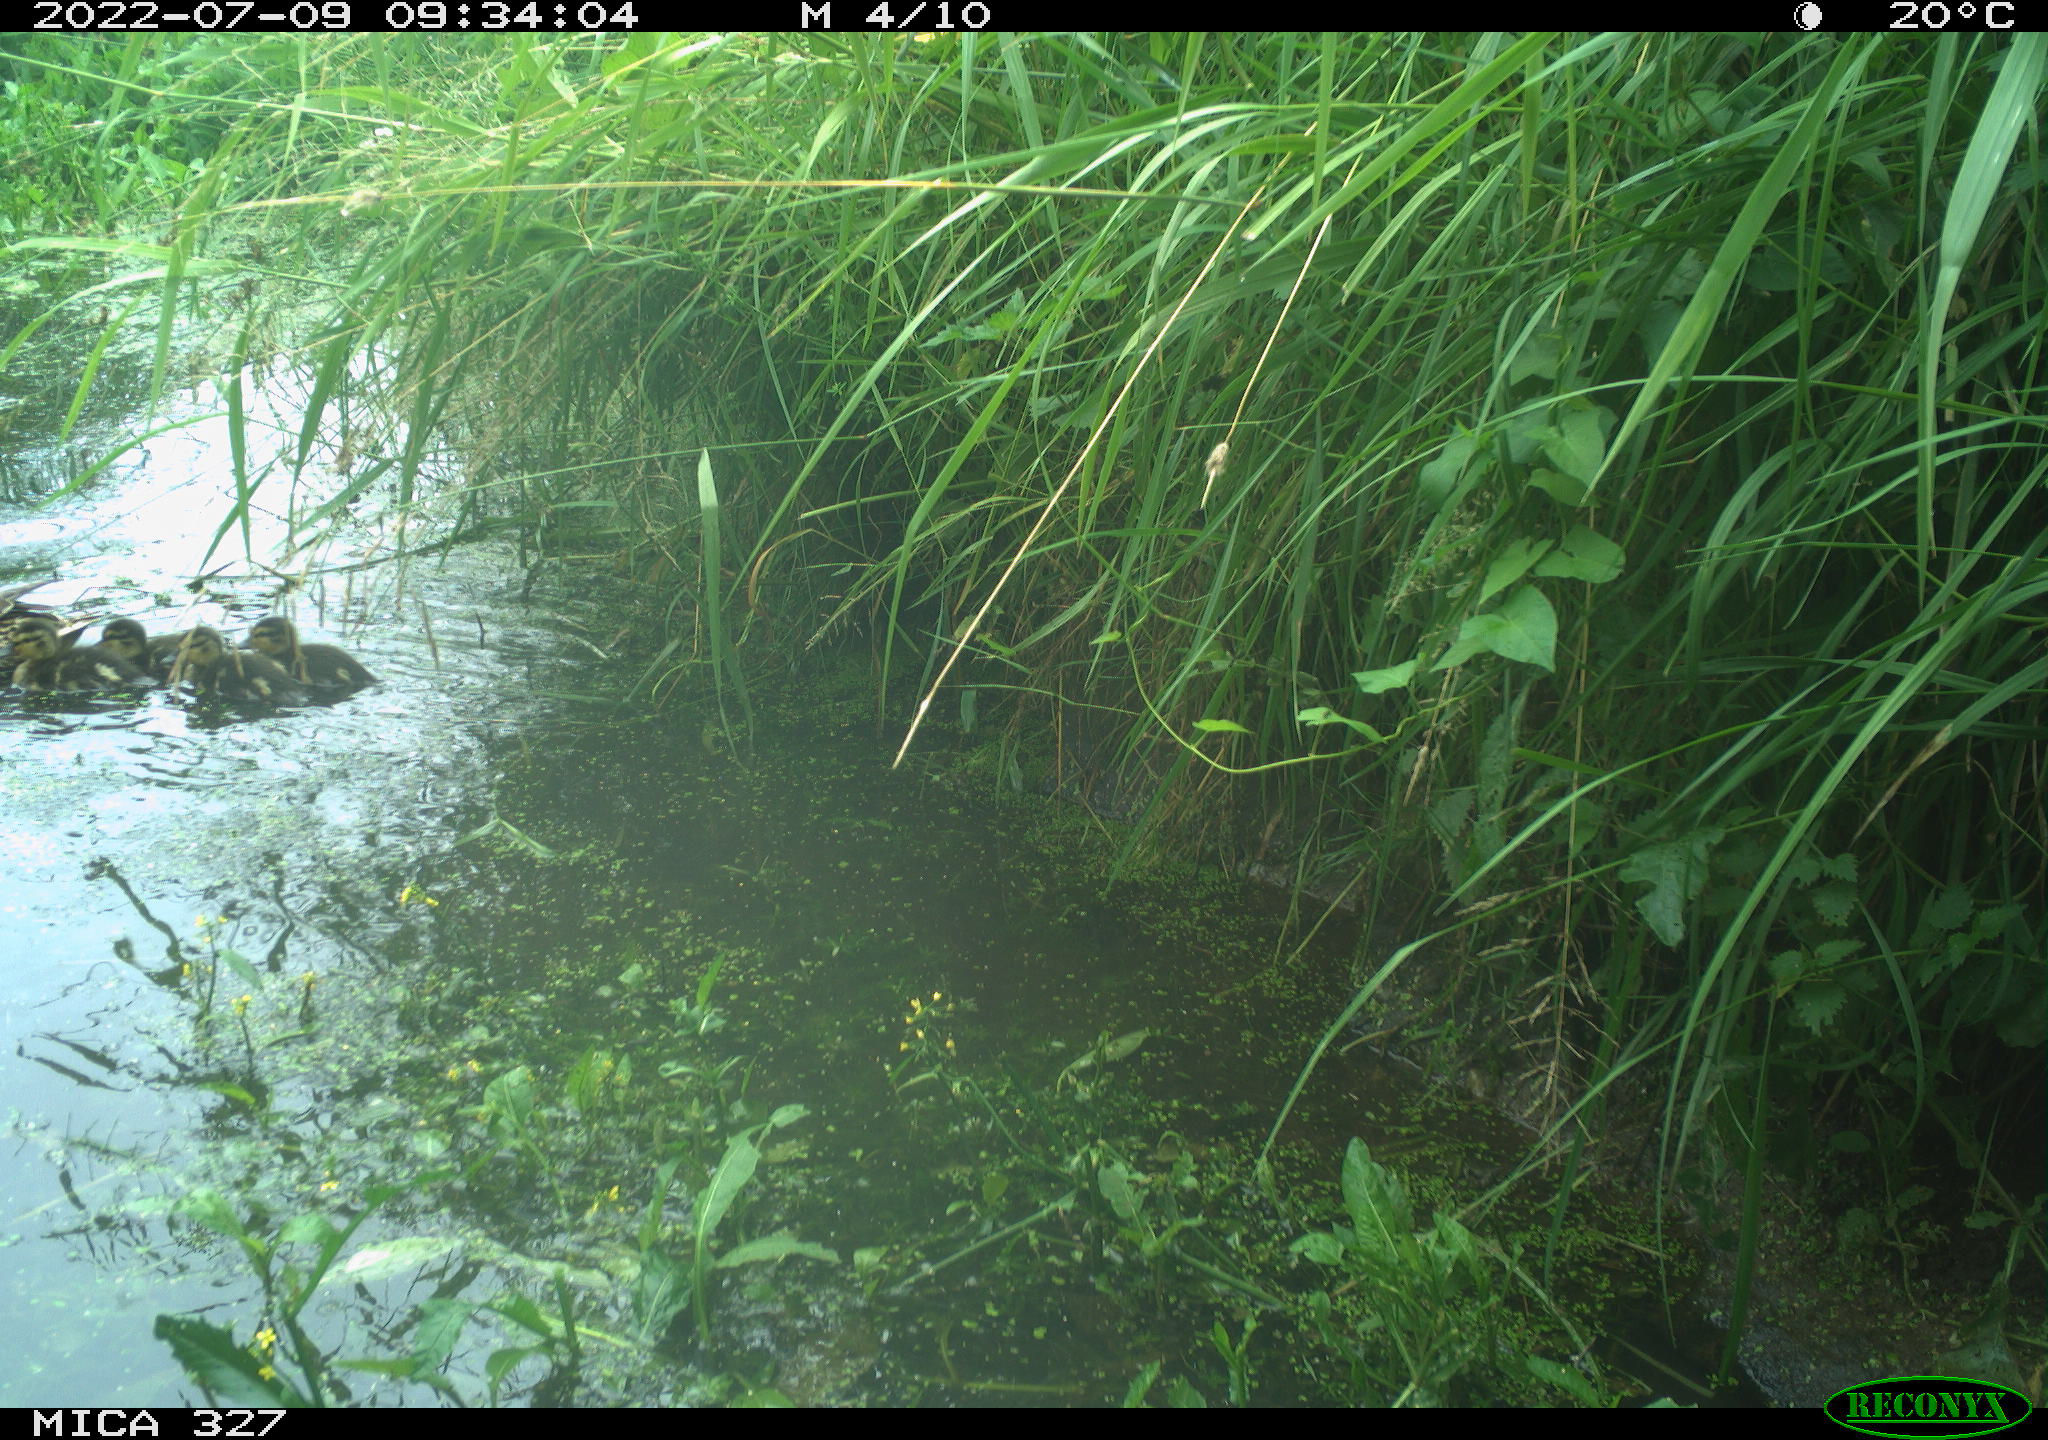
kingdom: Animalia
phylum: Chordata
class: Aves
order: Anseriformes
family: Anatidae
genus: Anas
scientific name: Anas platyrhynchos
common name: Mallard
